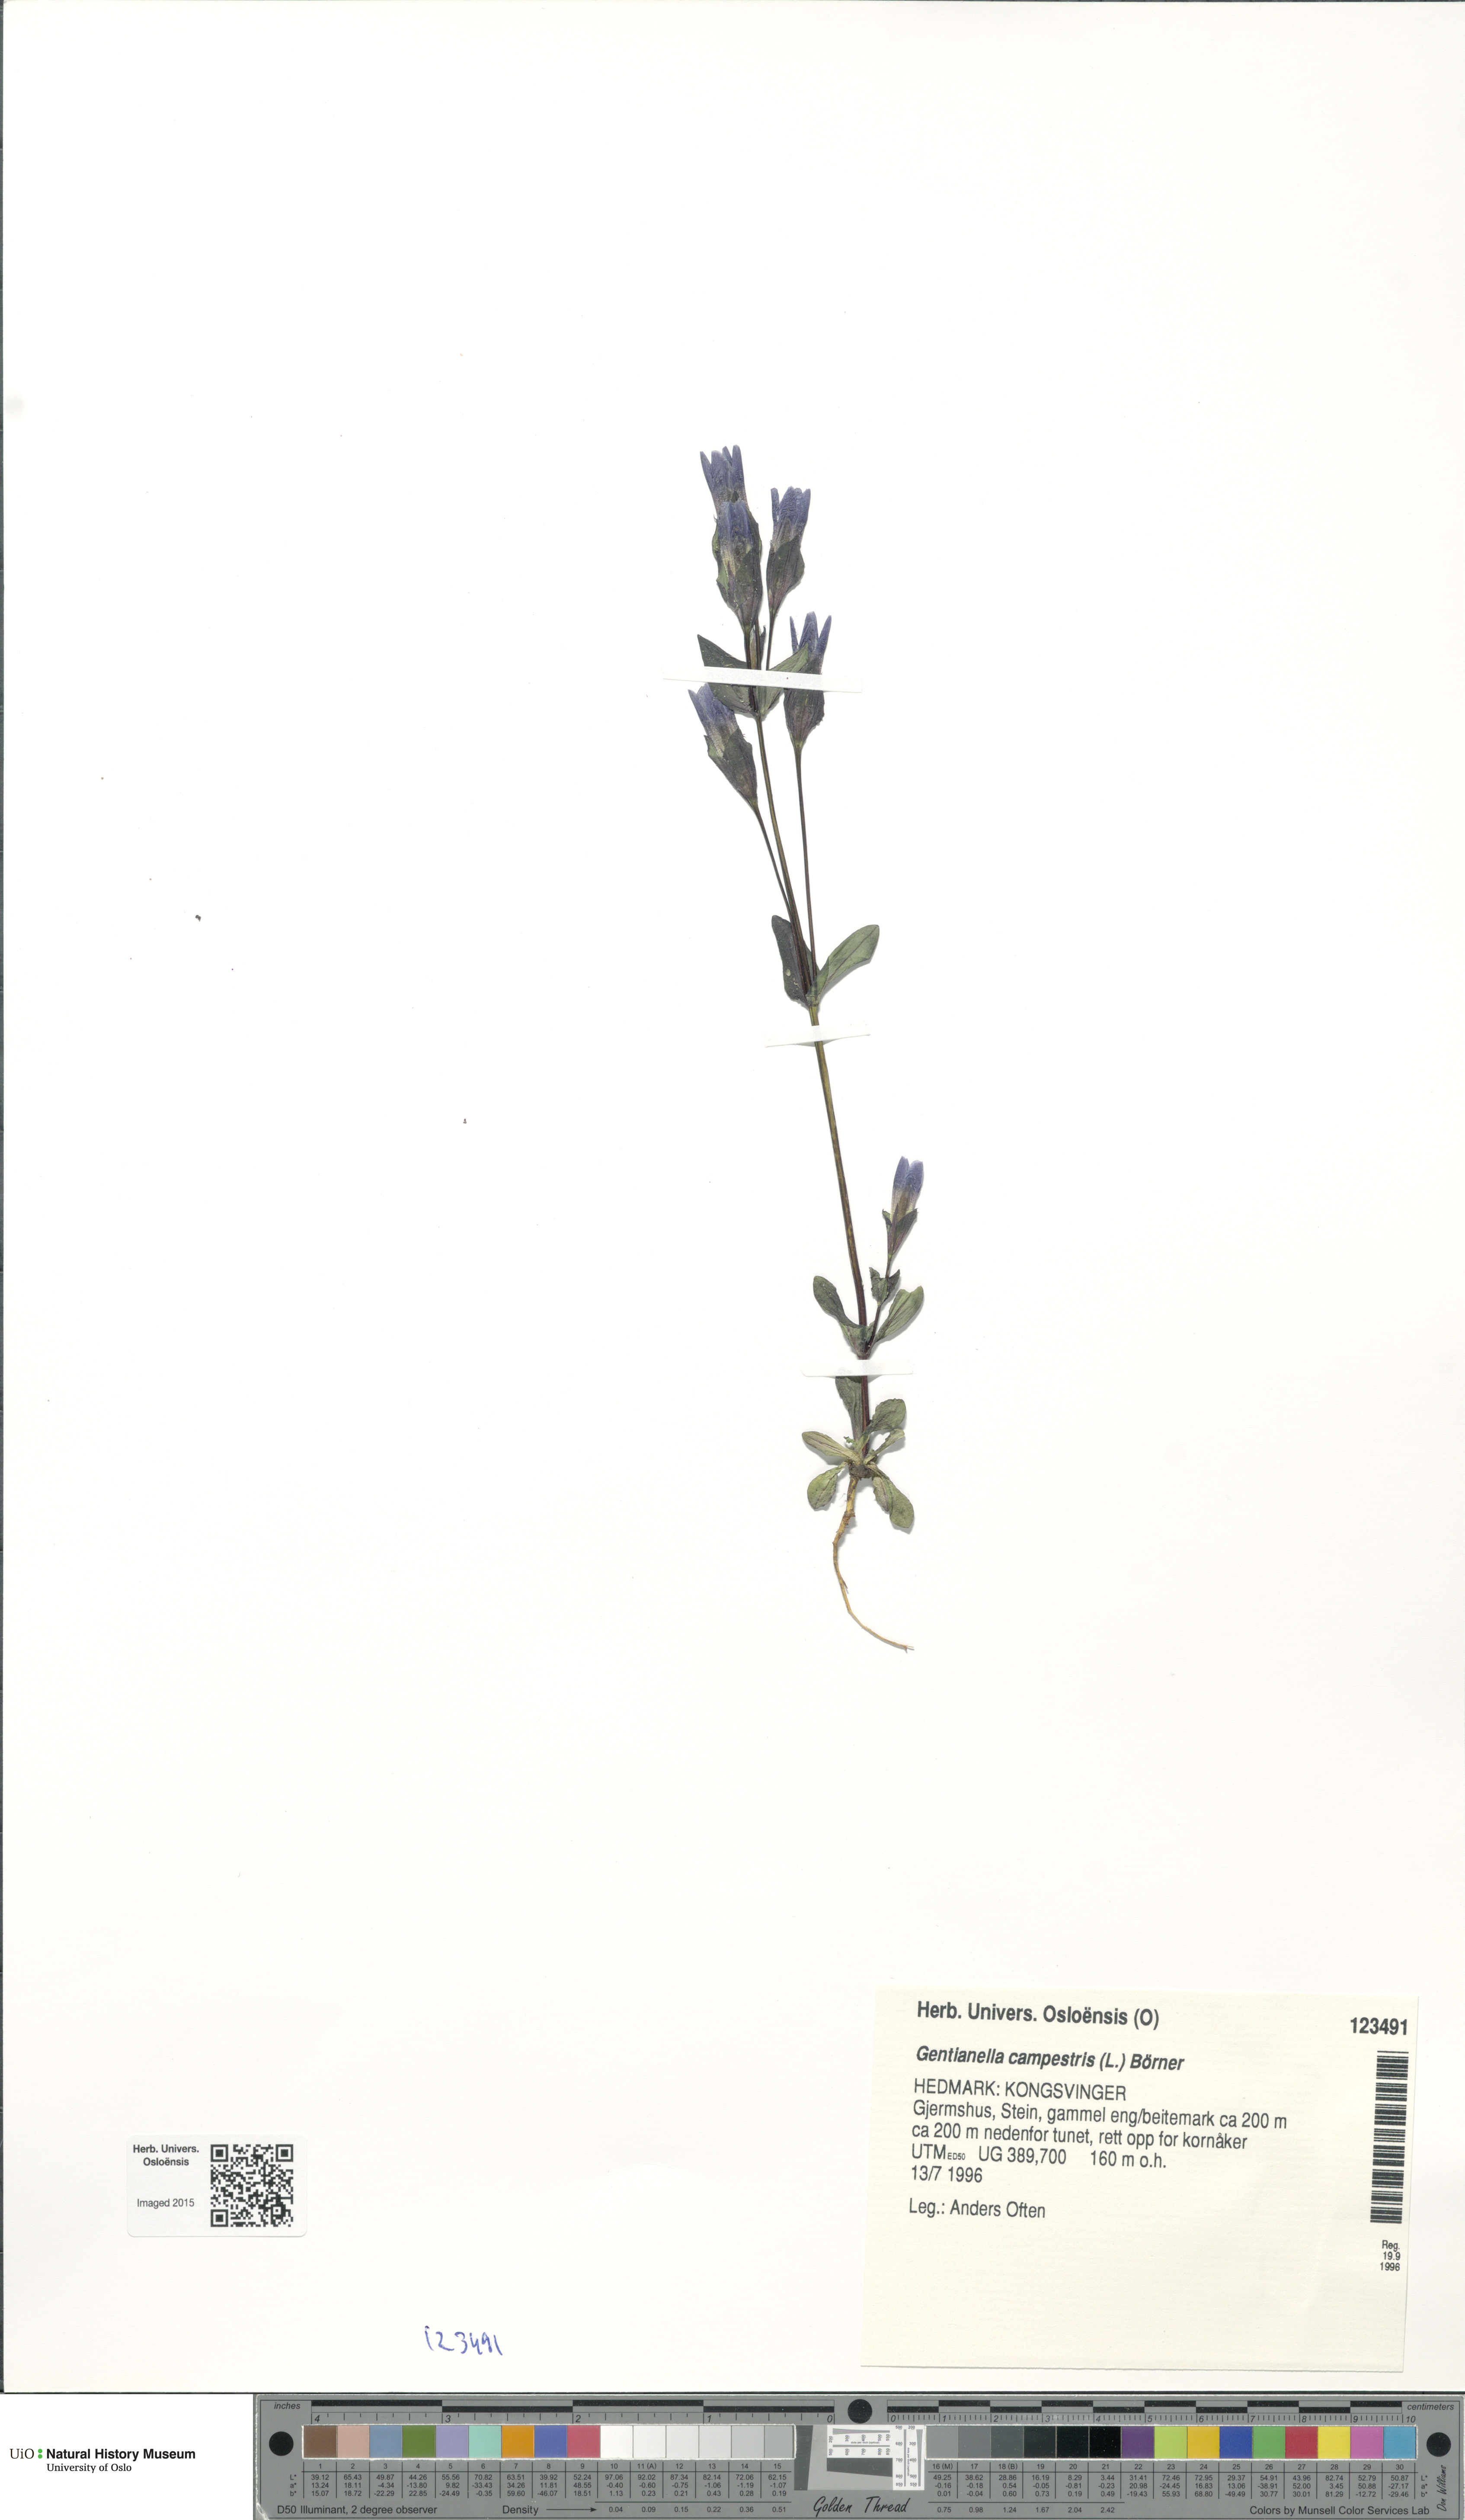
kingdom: Plantae
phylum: Tracheophyta
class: Magnoliopsida
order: Gentianales
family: Gentianaceae
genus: Gentianella
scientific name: Gentianella campestris
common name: Field gentian
